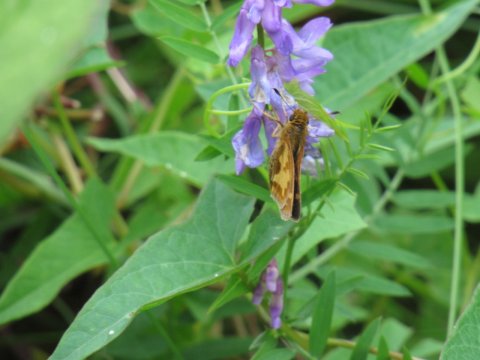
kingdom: Animalia
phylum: Arthropoda
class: Insecta
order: Lepidoptera
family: Hesperiidae
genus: Polites
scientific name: Polites coras
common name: Peck's Skipper
